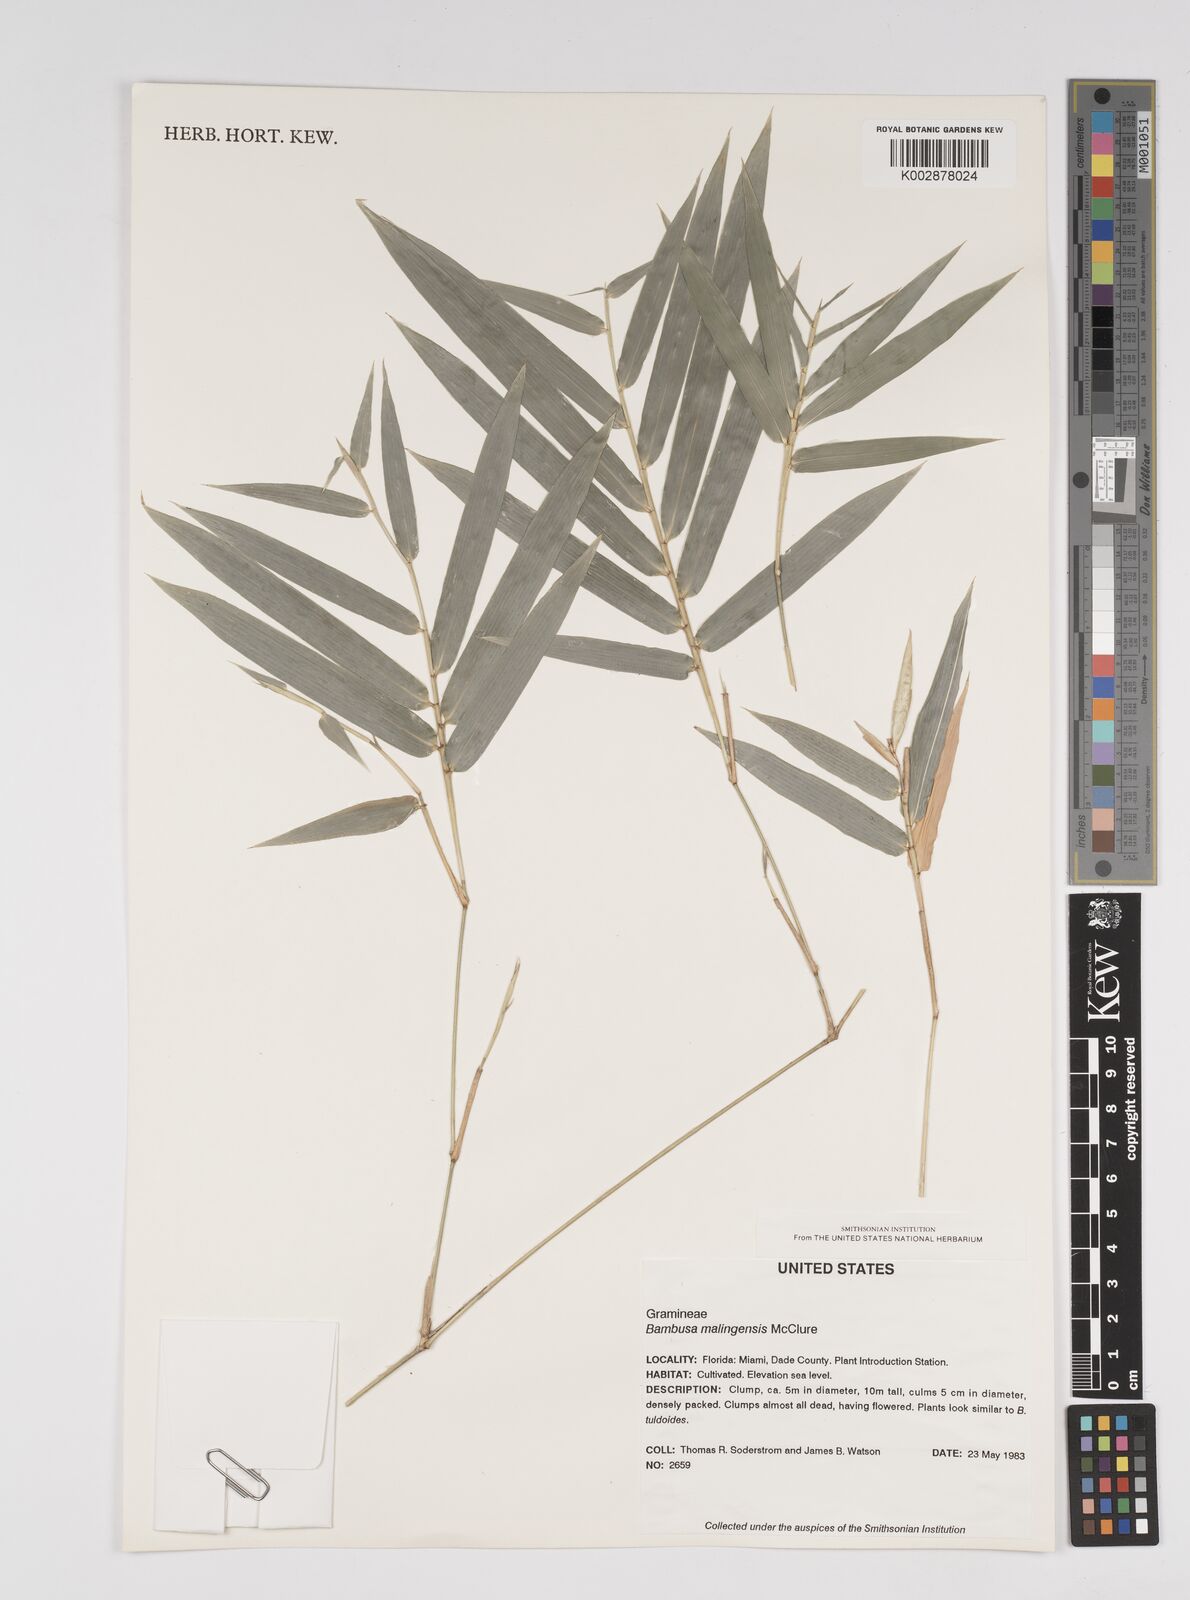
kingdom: Plantae
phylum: Tracheophyta
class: Liliopsida
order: Poales
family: Poaceae
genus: Bambusa
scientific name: Bambusa malingensis
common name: Maling bamboo
